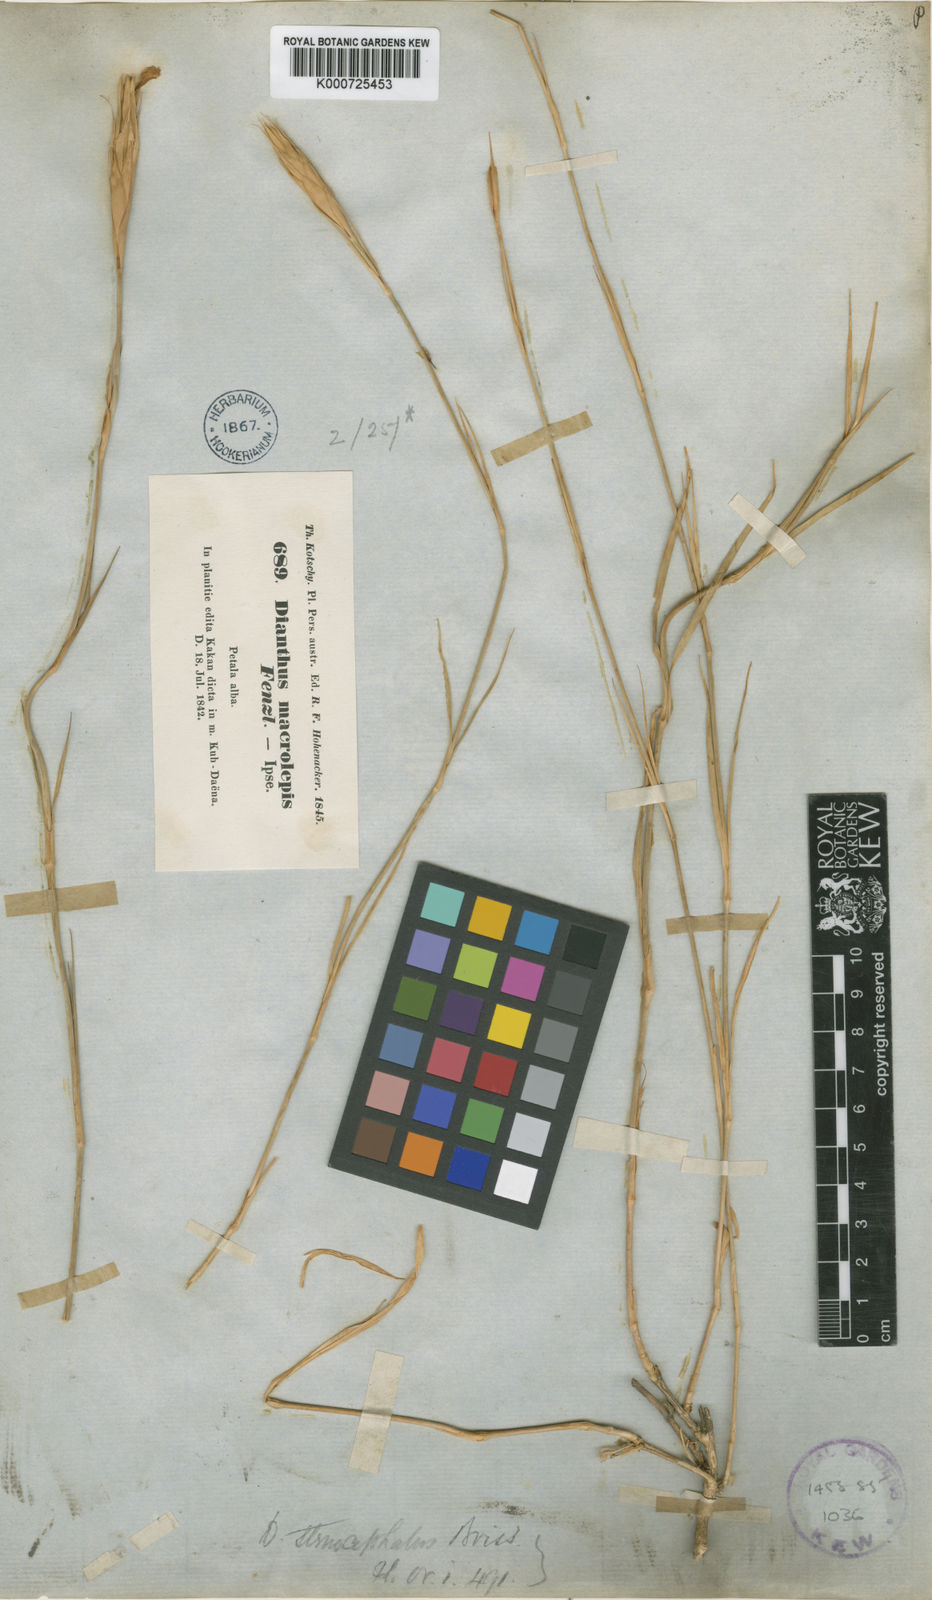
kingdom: Plantae
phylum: Tracheophyta
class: Magnoliopsida
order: Caryophyllales
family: Caryophyllaceae
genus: Dianthus
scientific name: Dianthus stenocephalus
